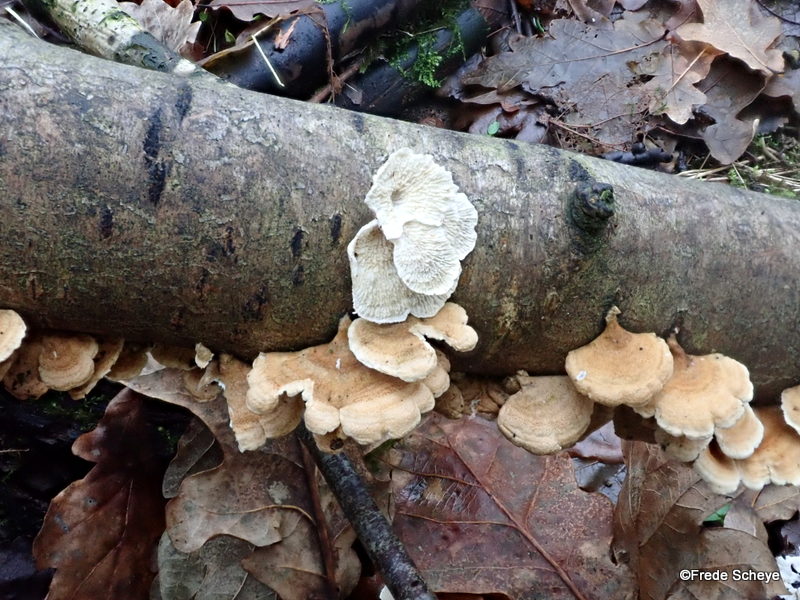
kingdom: Fungi
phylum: Basidiomycota
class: Agaricomycetes
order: Amylocorticiales
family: Amylocorticiaceae
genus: Plicaturopsis
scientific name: Plicaturopsis crispa
